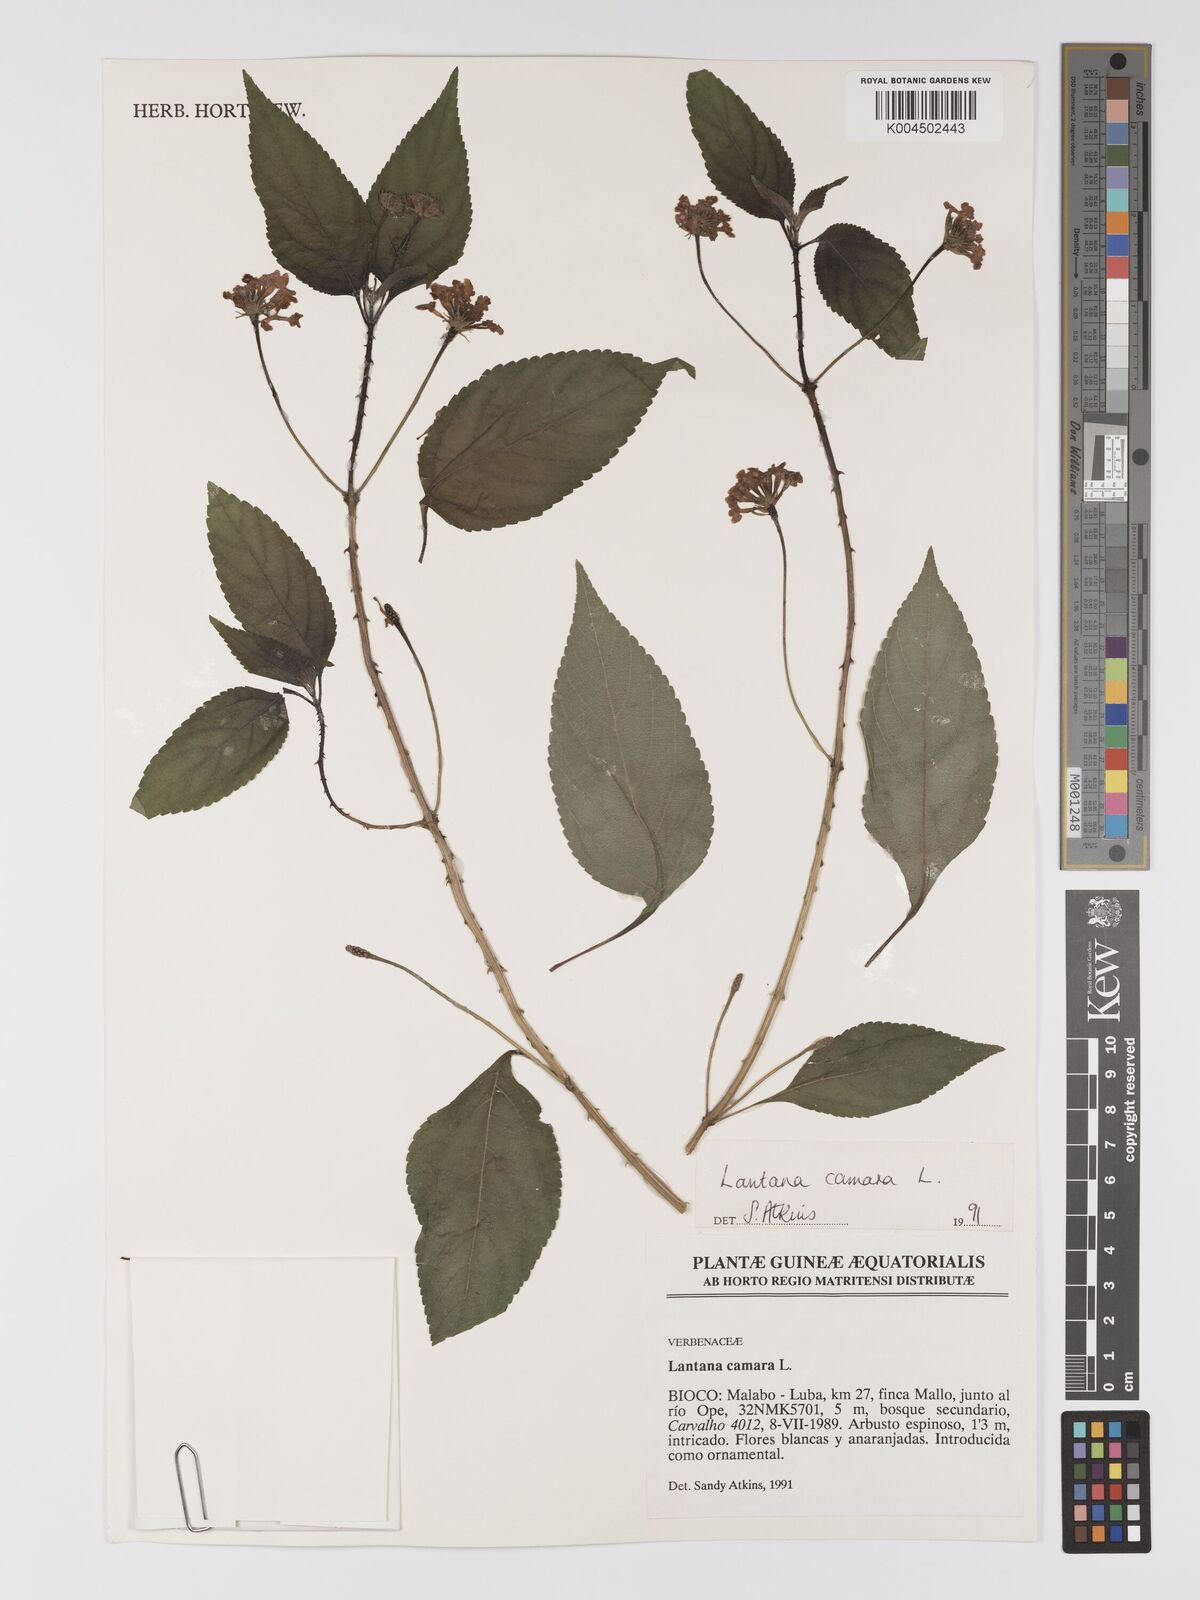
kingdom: Plantae
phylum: Tracheophyta
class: Magnoliopsida
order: Lamiales
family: Verbenaceae
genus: Lantana
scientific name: Lantana camara
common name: Lantana
